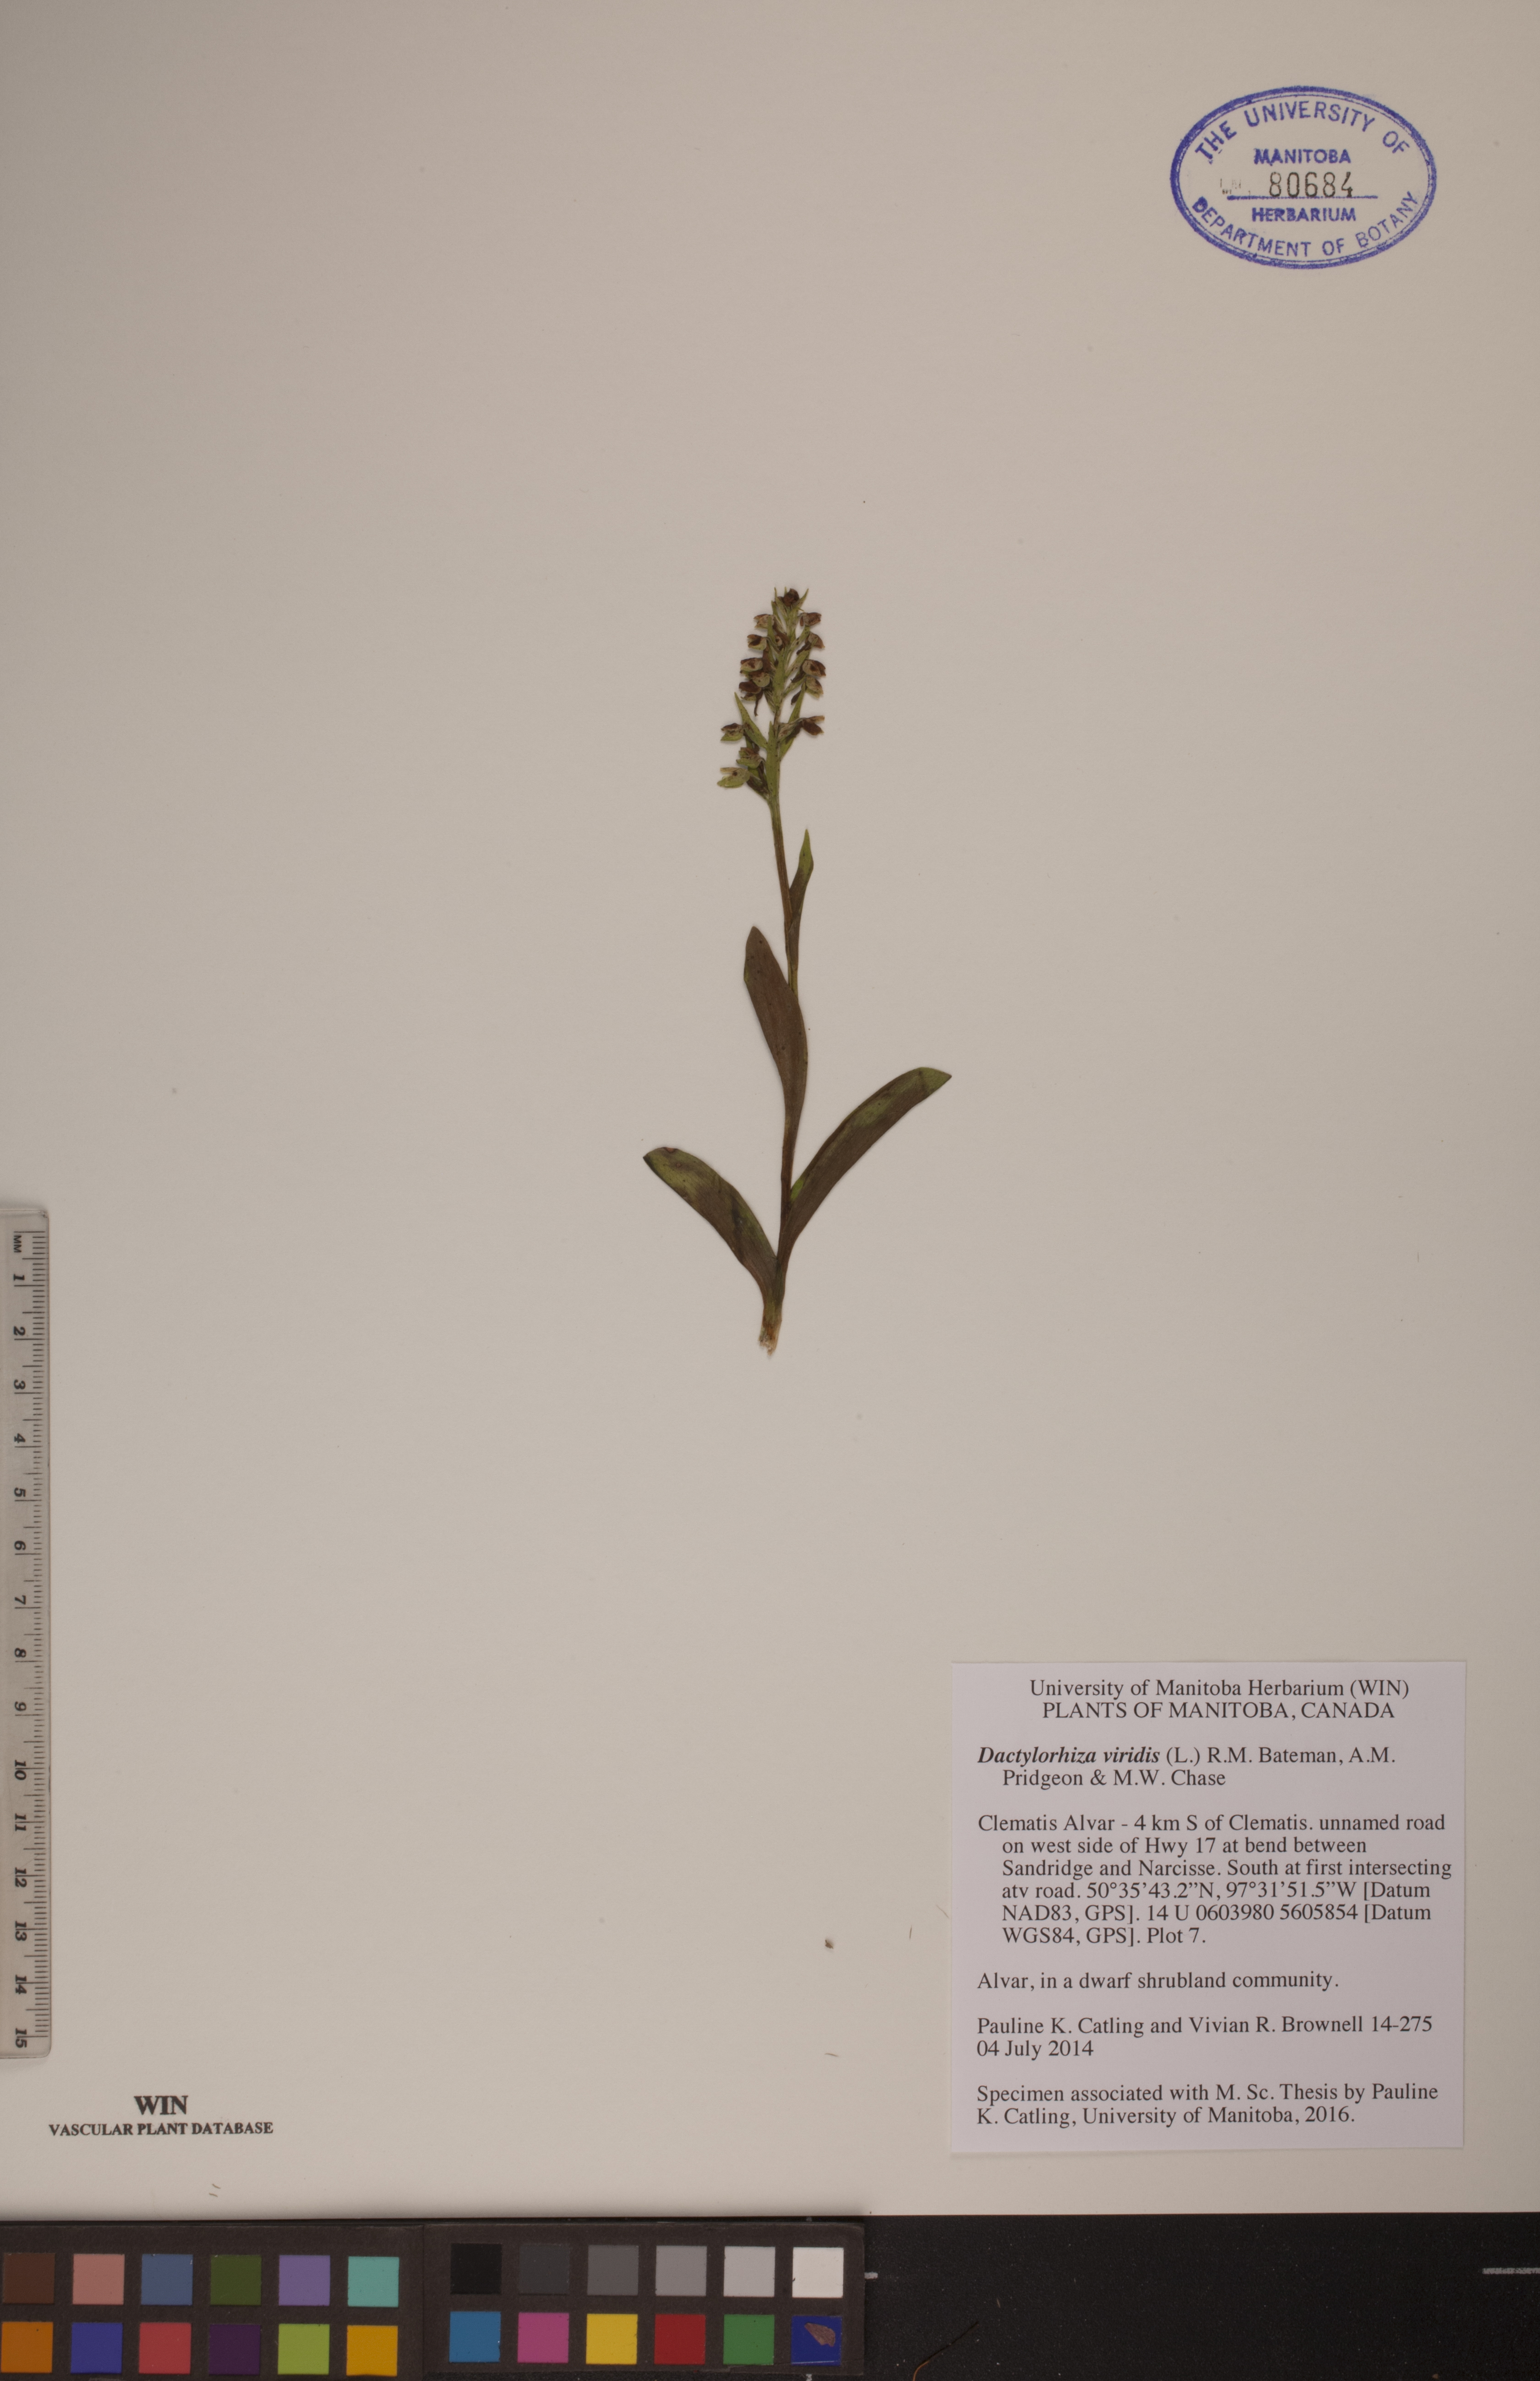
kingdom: Plantae
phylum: Tracheophyta
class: Liliopsida
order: Asparagales
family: Orchidaceae
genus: Dactylorhiza
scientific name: Dactylorhiza viridis
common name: Longbract frog orchid
